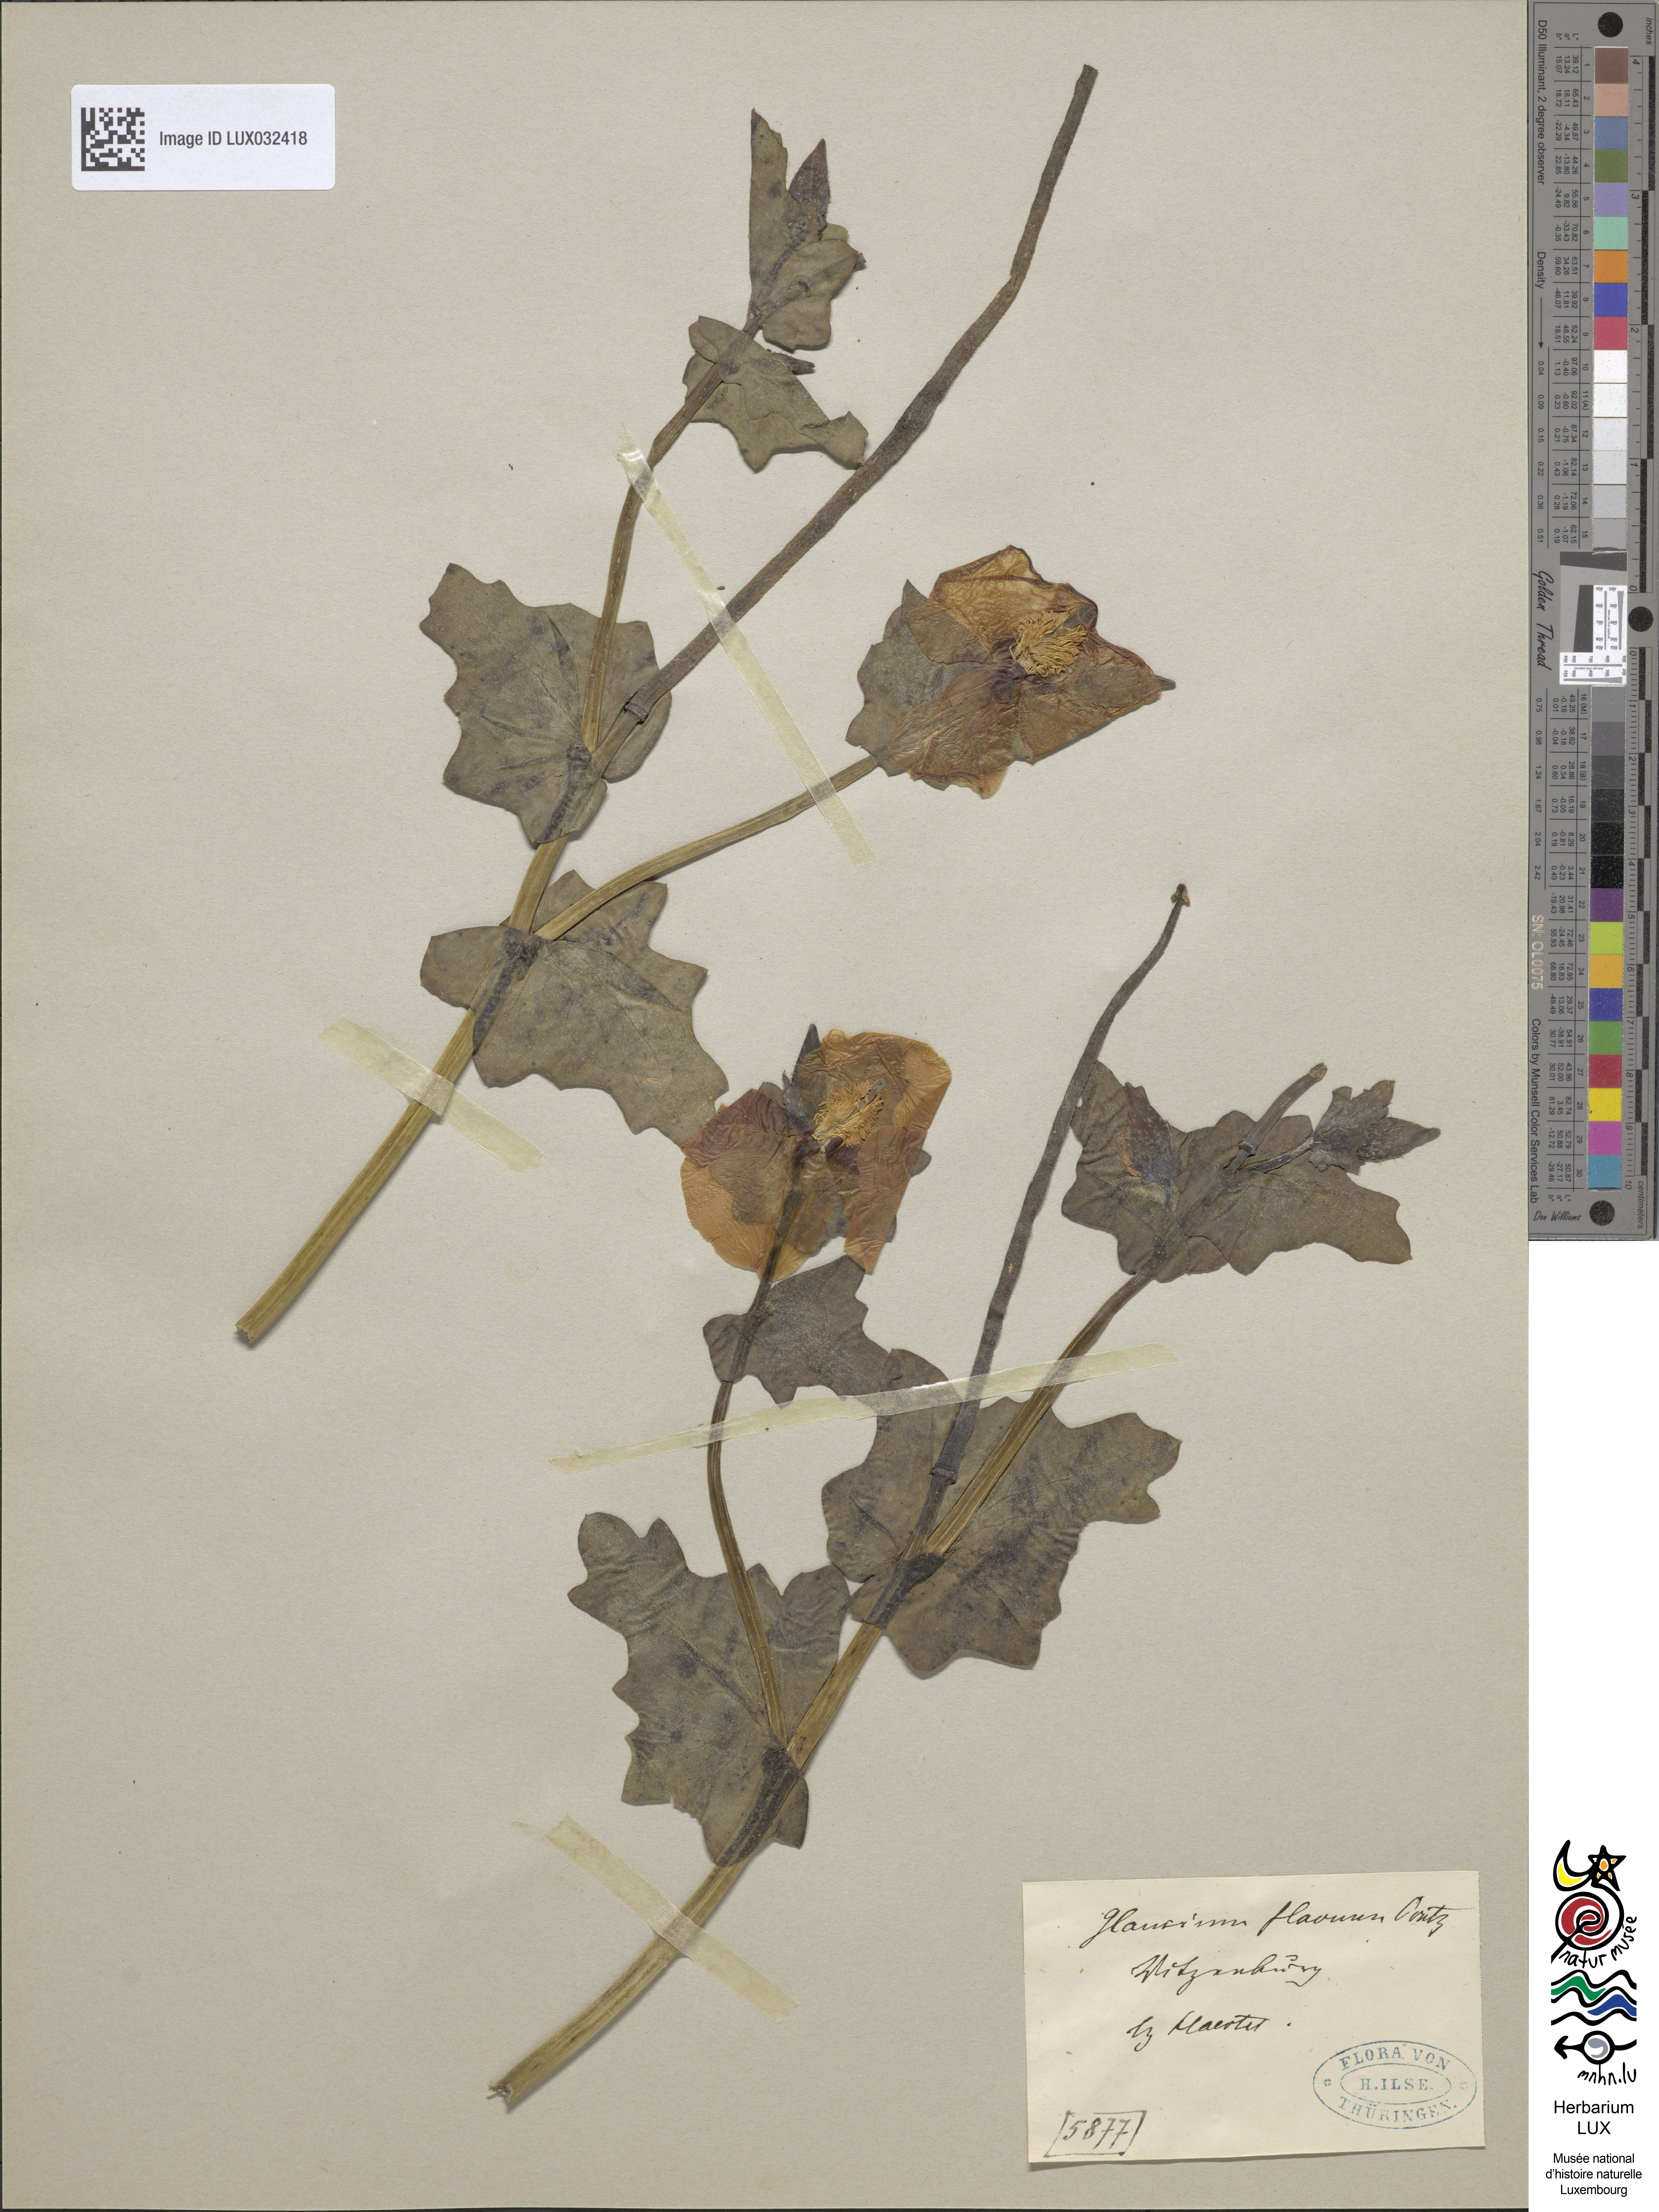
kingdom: Plantae
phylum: Tracheophyta
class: Magnoliopsida
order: Ranunculales
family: Papaveraceae
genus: Glaucium
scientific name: Glaucium flavum
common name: Yellow horned-poppy
